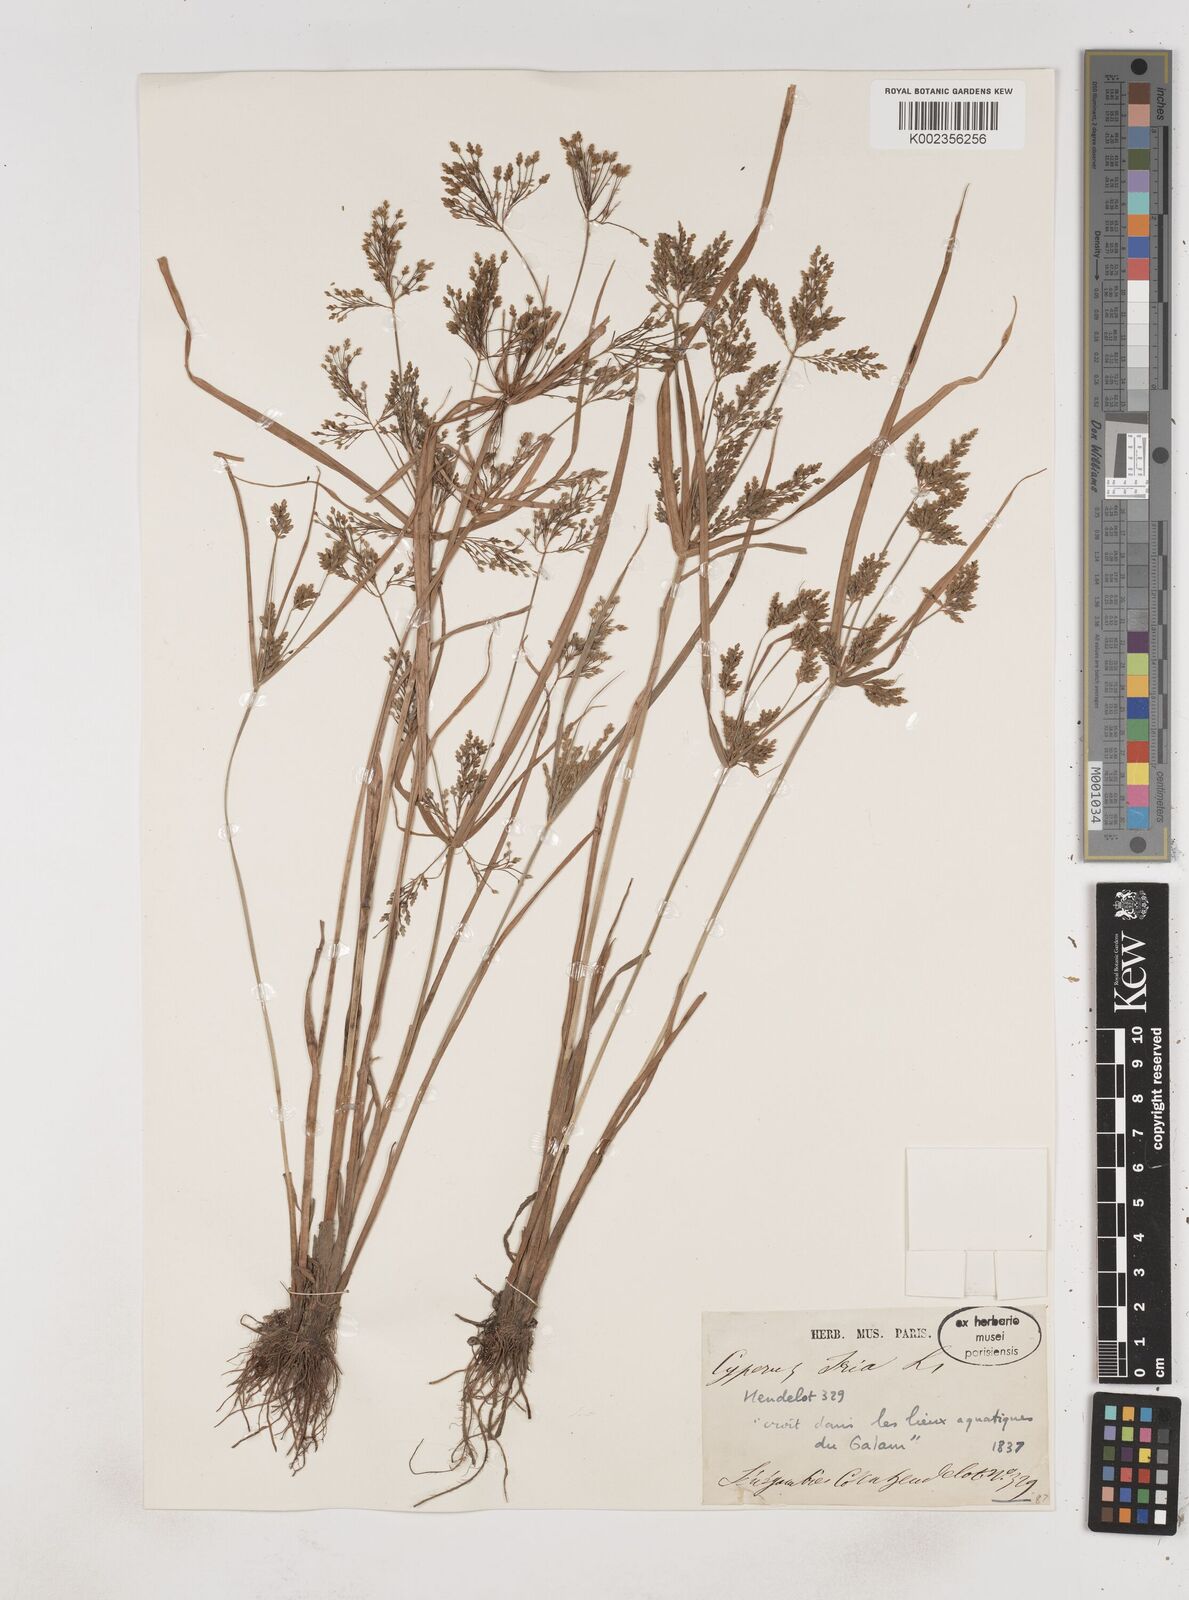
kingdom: Plantae
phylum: Tracheophyta
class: Liliopsida
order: Poales
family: Cyperaceae
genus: Cyperus
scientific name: Cyperus iria
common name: Ricefield flatsedge
